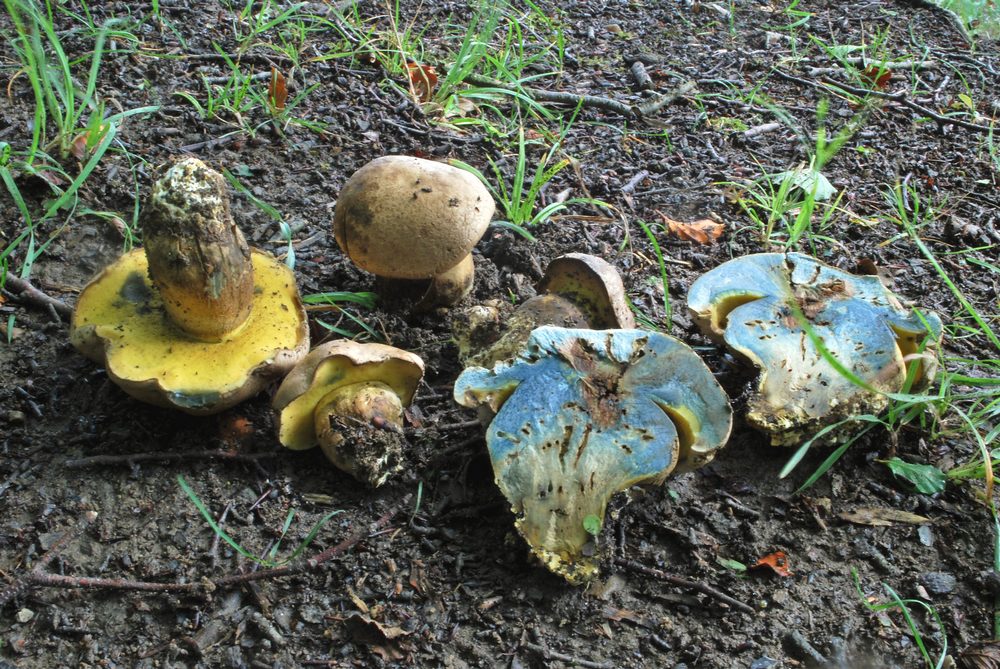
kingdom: Fungi
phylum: Basidiomycota
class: Agaricomycetes
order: Boletales
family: Boletaceae
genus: Caloboletus
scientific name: Caloboletus radicans
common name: rod-rørhat
